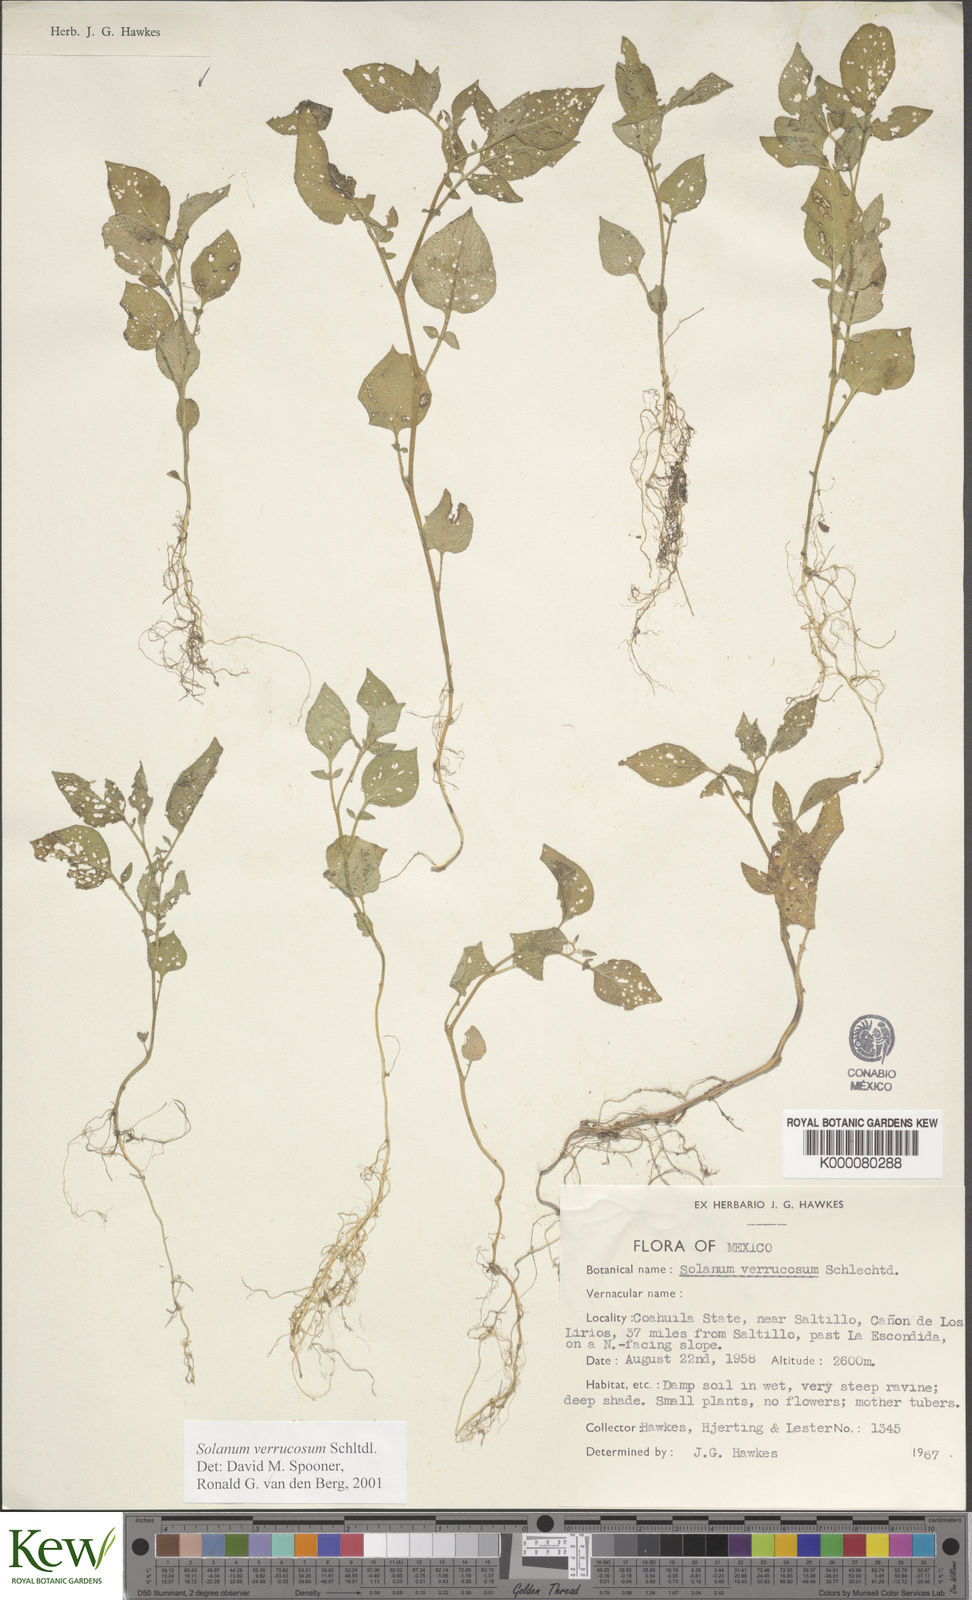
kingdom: Plantae
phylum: Tracheophyta
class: Magnoliopsida
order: Solanales
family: Solanaceae
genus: Solanum
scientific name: Solanum verrucosum
